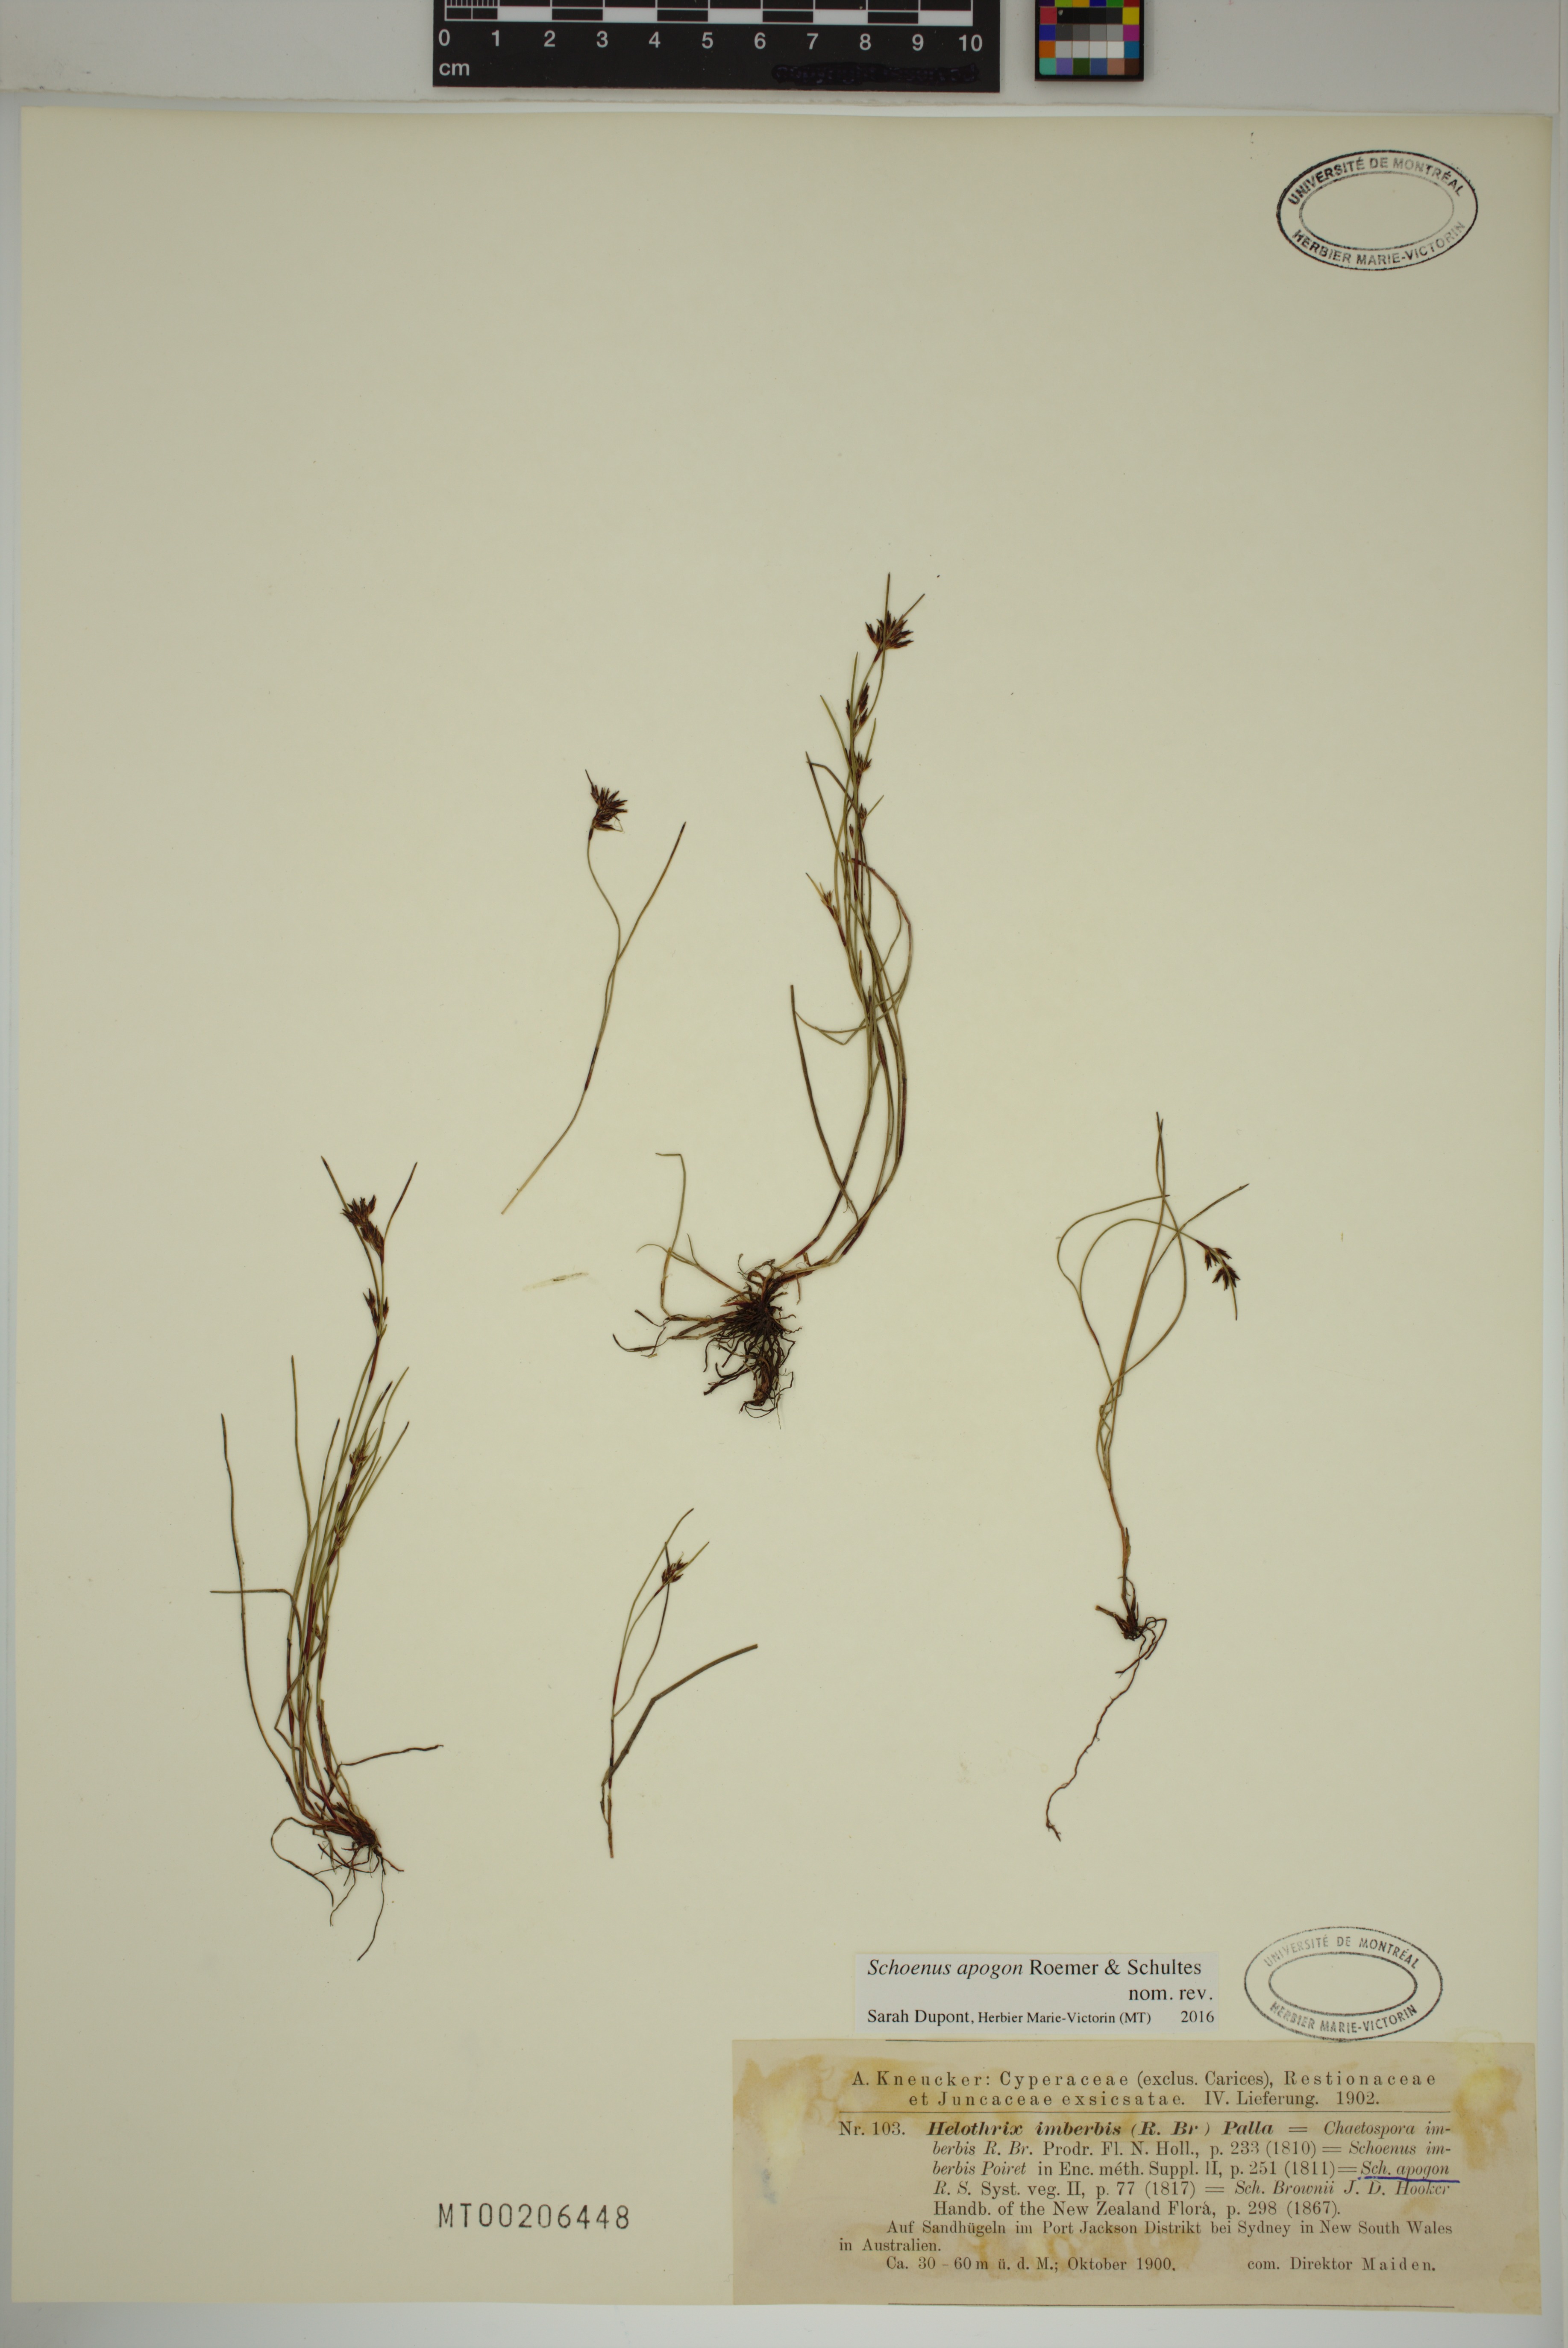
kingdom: Plantae
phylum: Tracheophyta
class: Liliopsida
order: Poales
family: Cyperaceae
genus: Schoenus
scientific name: Schoenus apogon
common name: Smooth bogrush
